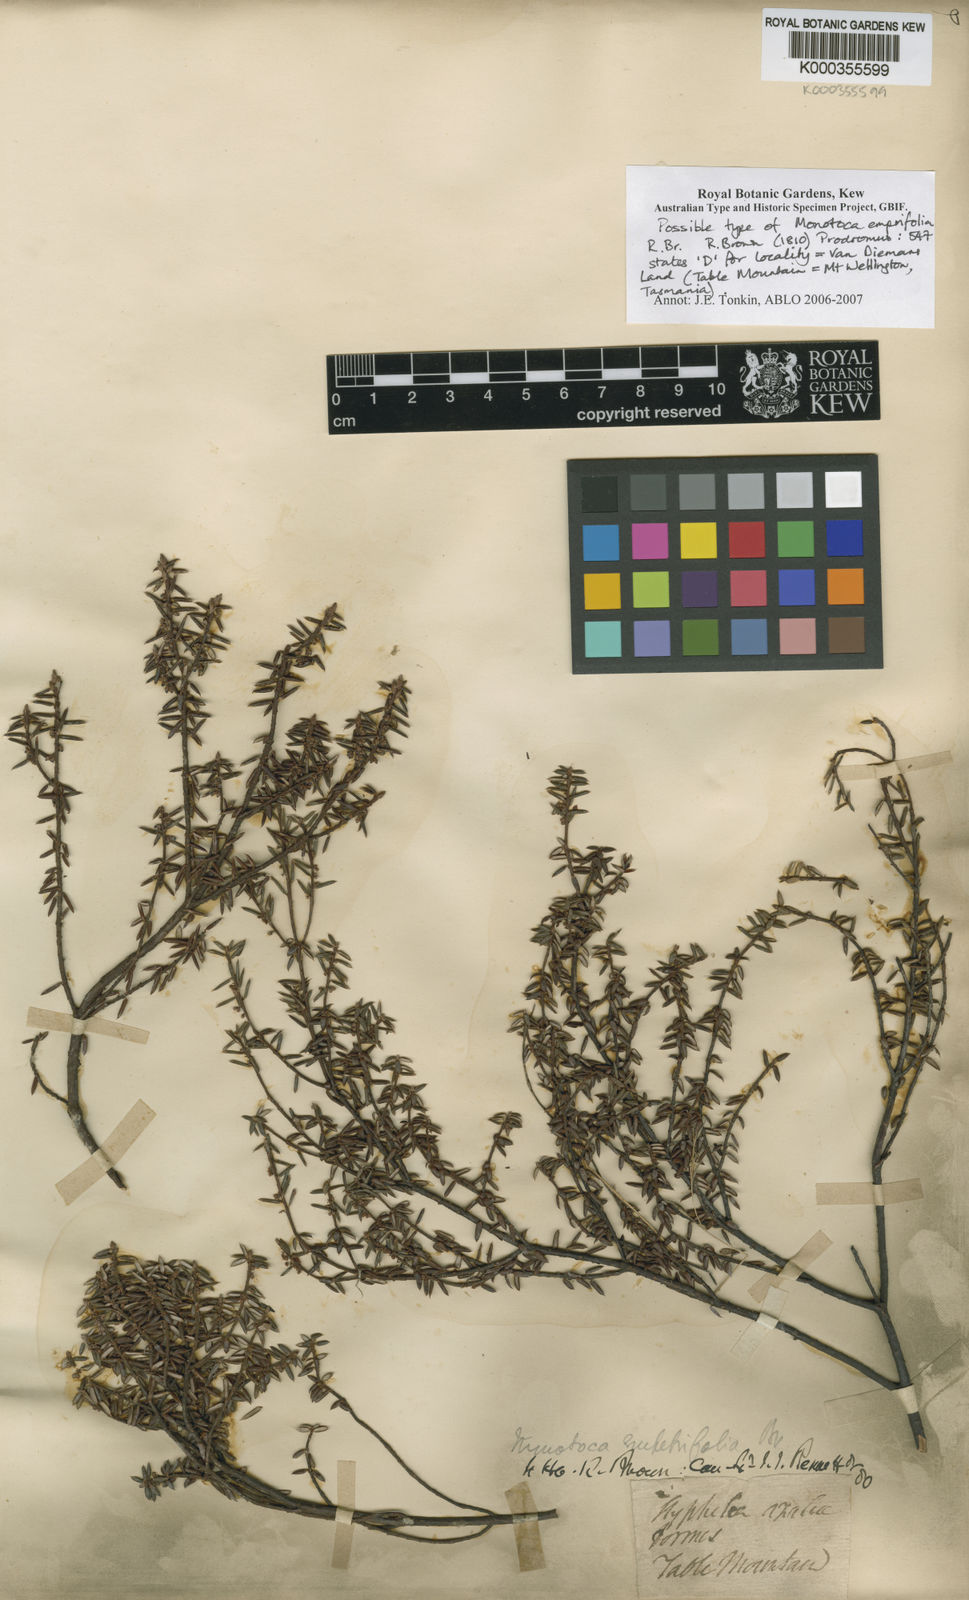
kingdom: Plantae
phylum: Tracheophyta
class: Magnoliopsida
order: Ericales
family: Ericaceae
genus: Monotoca
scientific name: Monotoca empetrifolia
